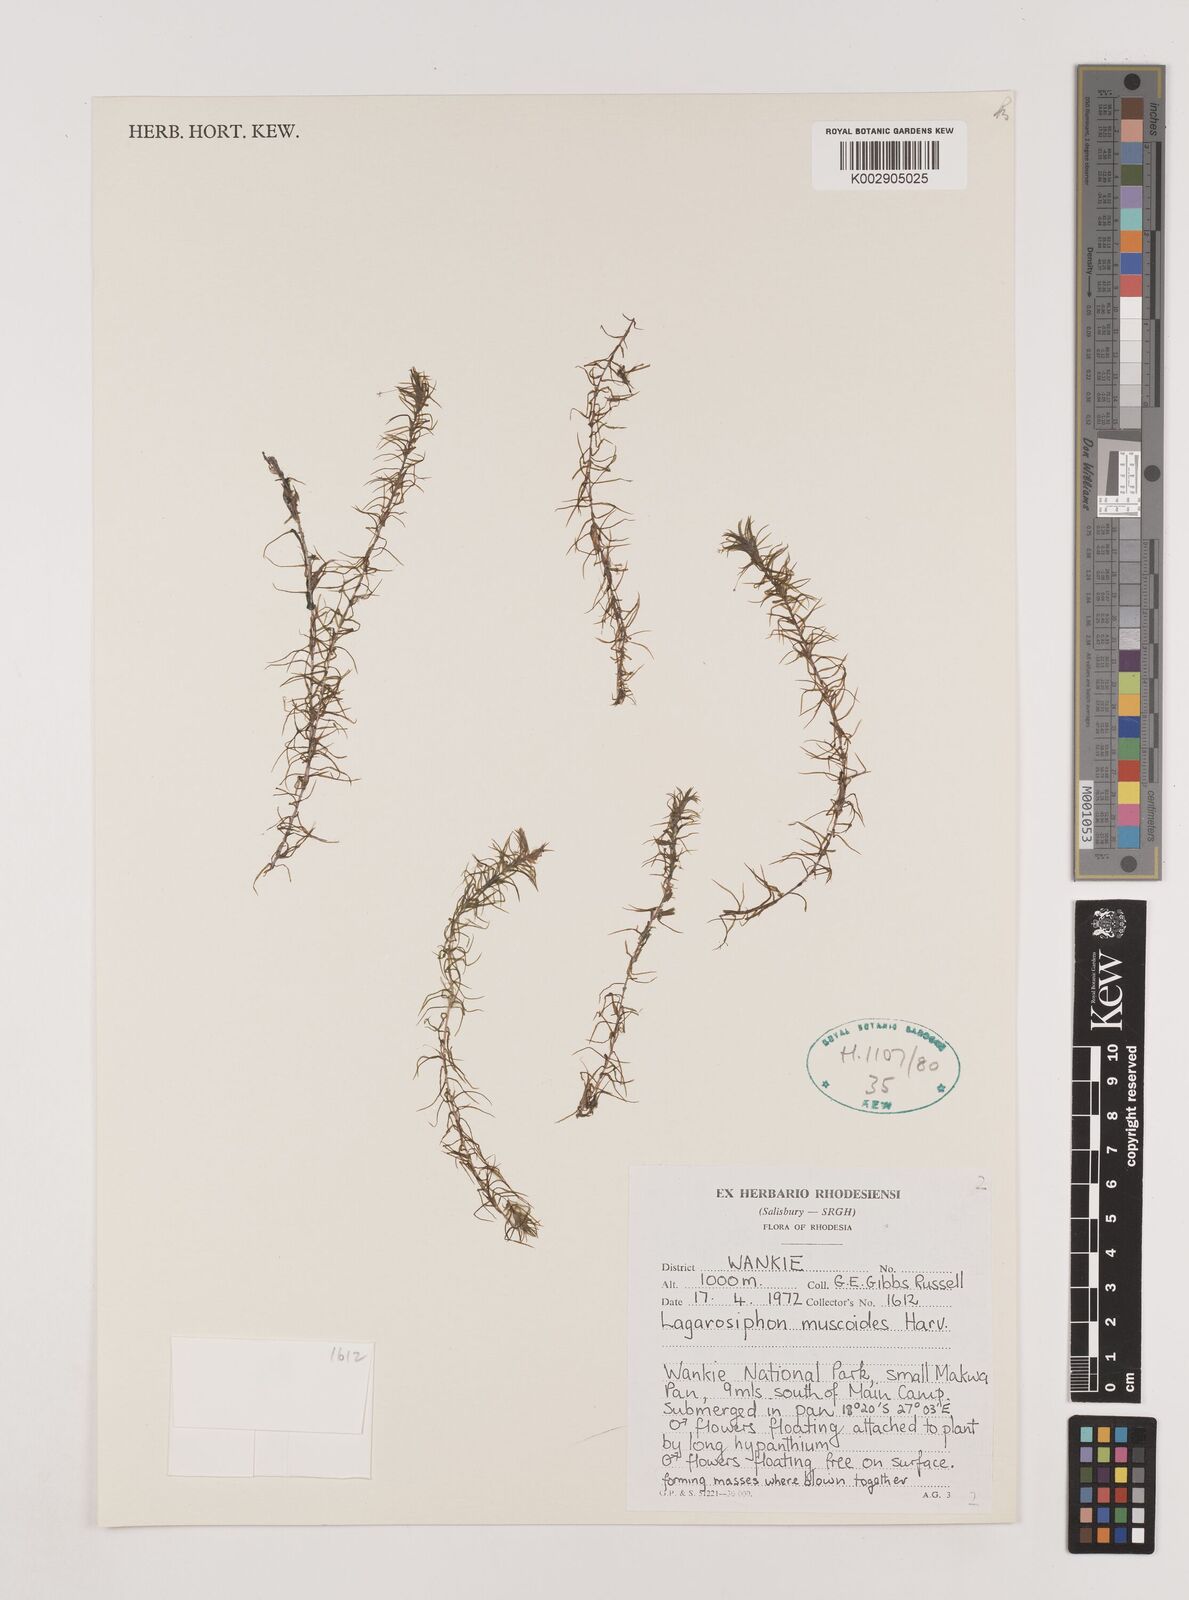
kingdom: Plantae
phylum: Tracheophyta
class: Liliopsida
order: Alismatales
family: Hydrocharitaceae
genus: Lagarosiphon
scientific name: Lagarosiphon muscoides
